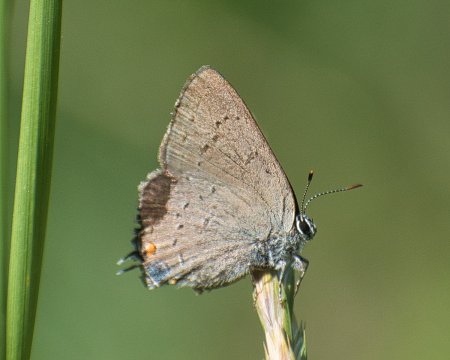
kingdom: Animalia
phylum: Arthropoda
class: Insecta
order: Lepidoptera
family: Lycaenidae
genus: Strymon
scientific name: Strymon sylvinus
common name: Sylvan Hairstreak
